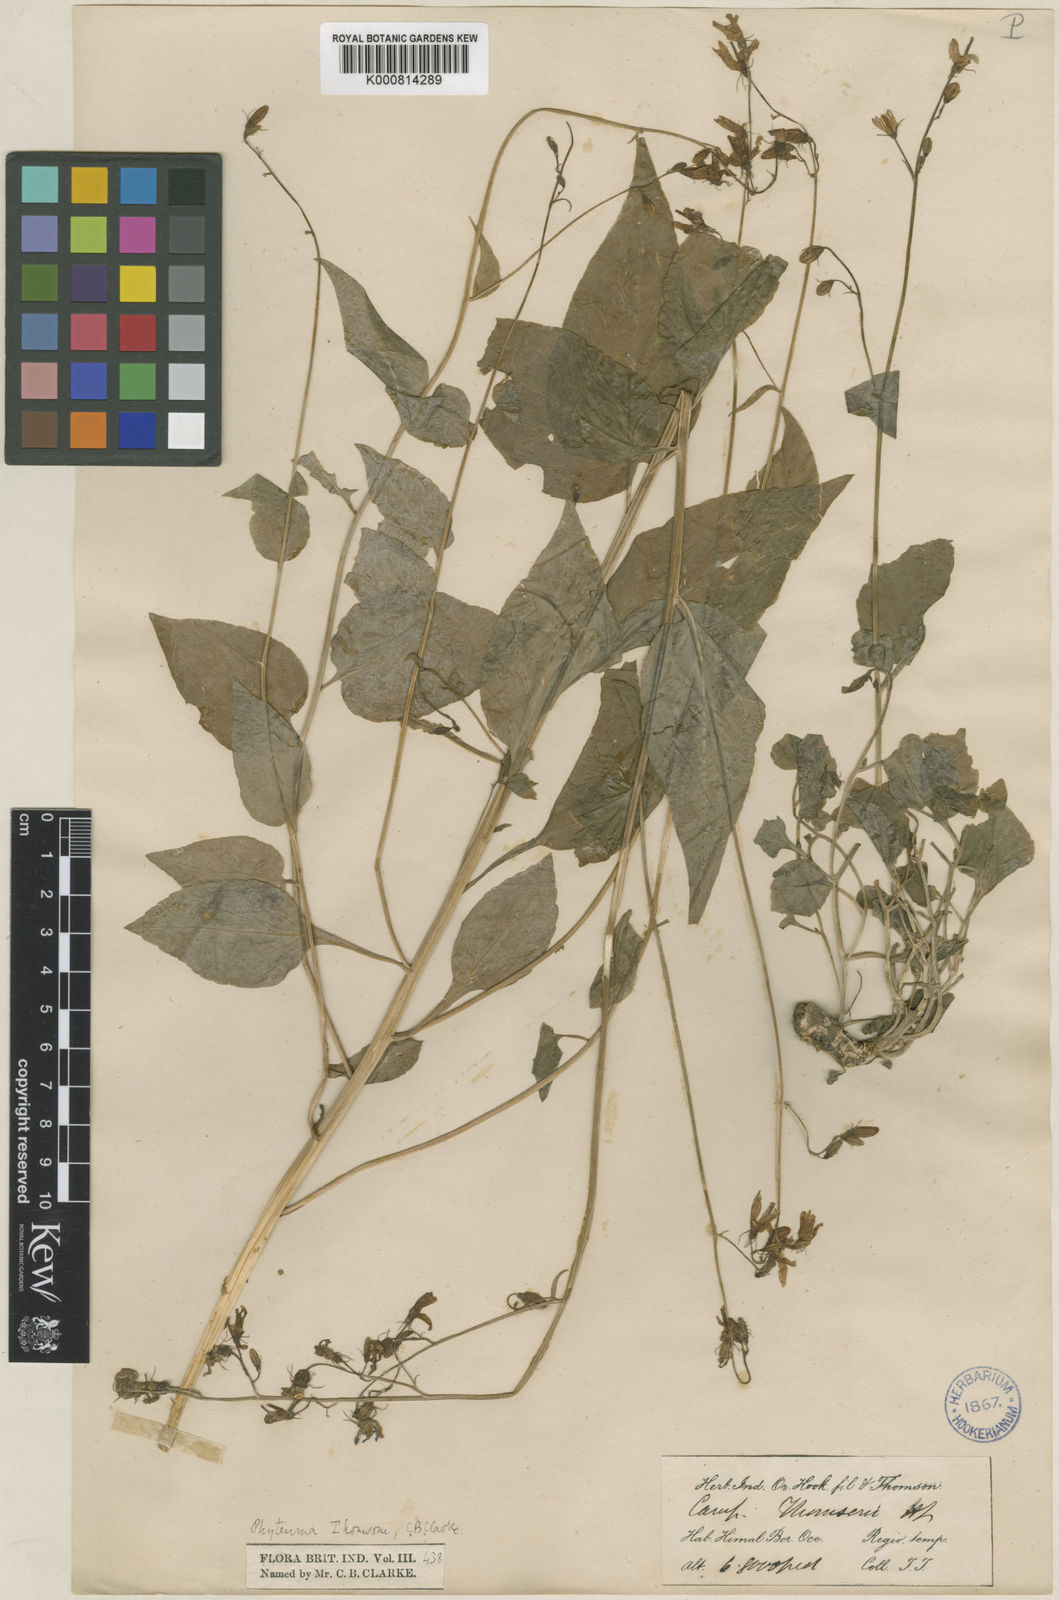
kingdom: Plantae
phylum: Tracheophyta
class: Magnoliopsida
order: Asterales
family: Campanulaceae
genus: Asyneuma
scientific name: Asyneuma thomsonii
